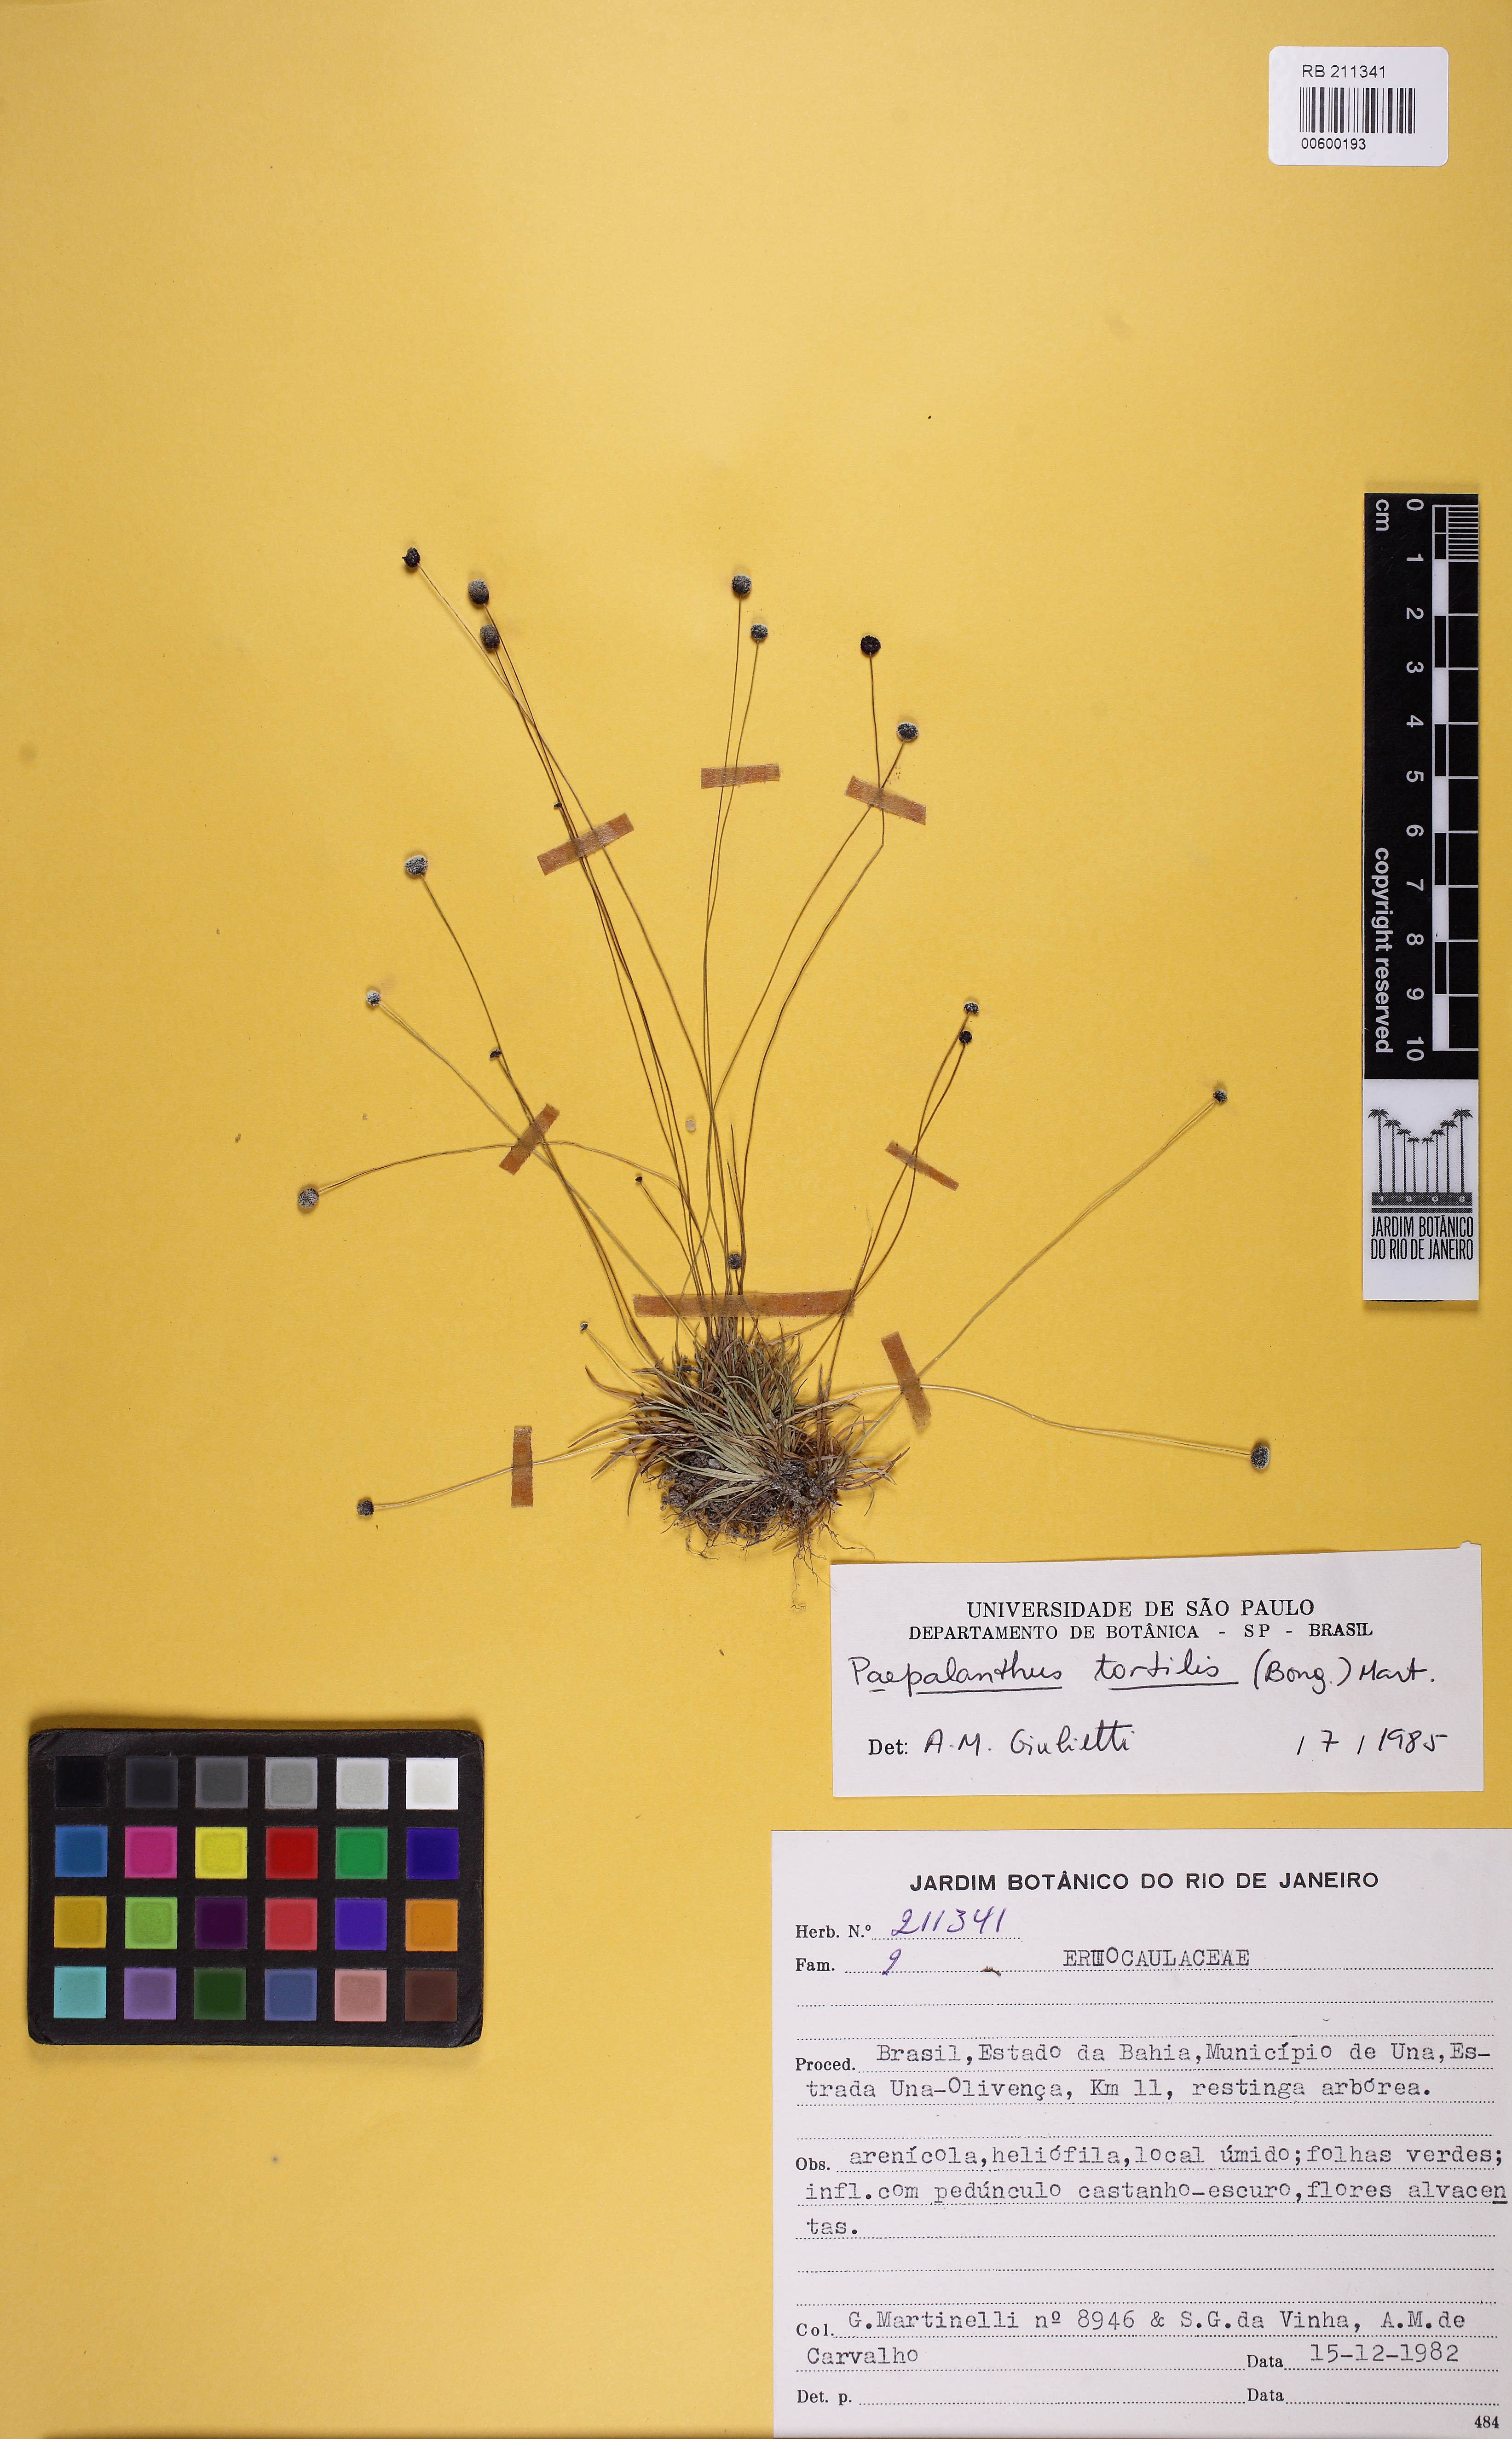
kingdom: Plantae
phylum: Tracheophyta
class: Liliopsida
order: Poales
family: Eriocaulaceae
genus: Paepalanthus
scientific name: Paepalanthus tortilis
